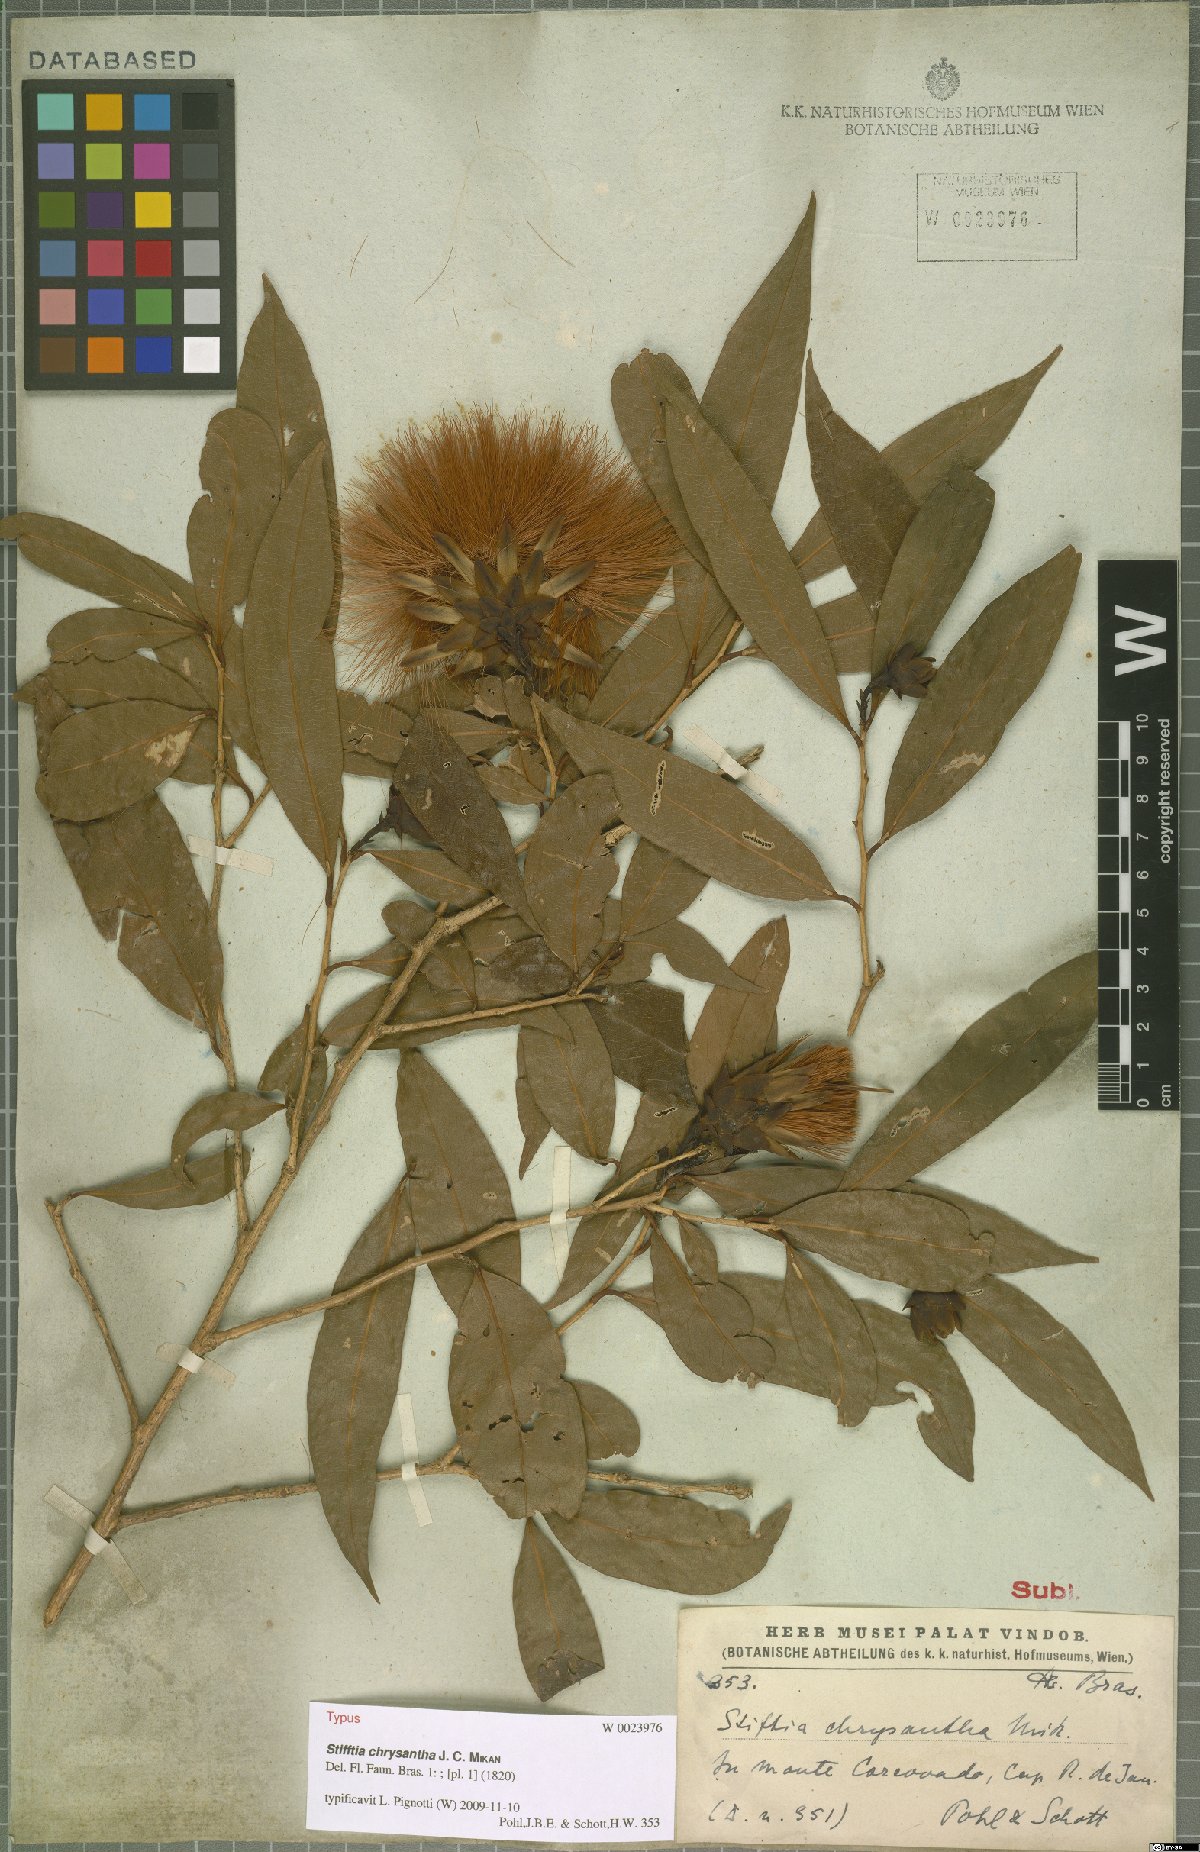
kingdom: Plantae
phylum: Tracheophyta
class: Magnoliopsida
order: Asterales
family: Asteraceae
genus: Stifftia
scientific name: Stifftia chrysantha
